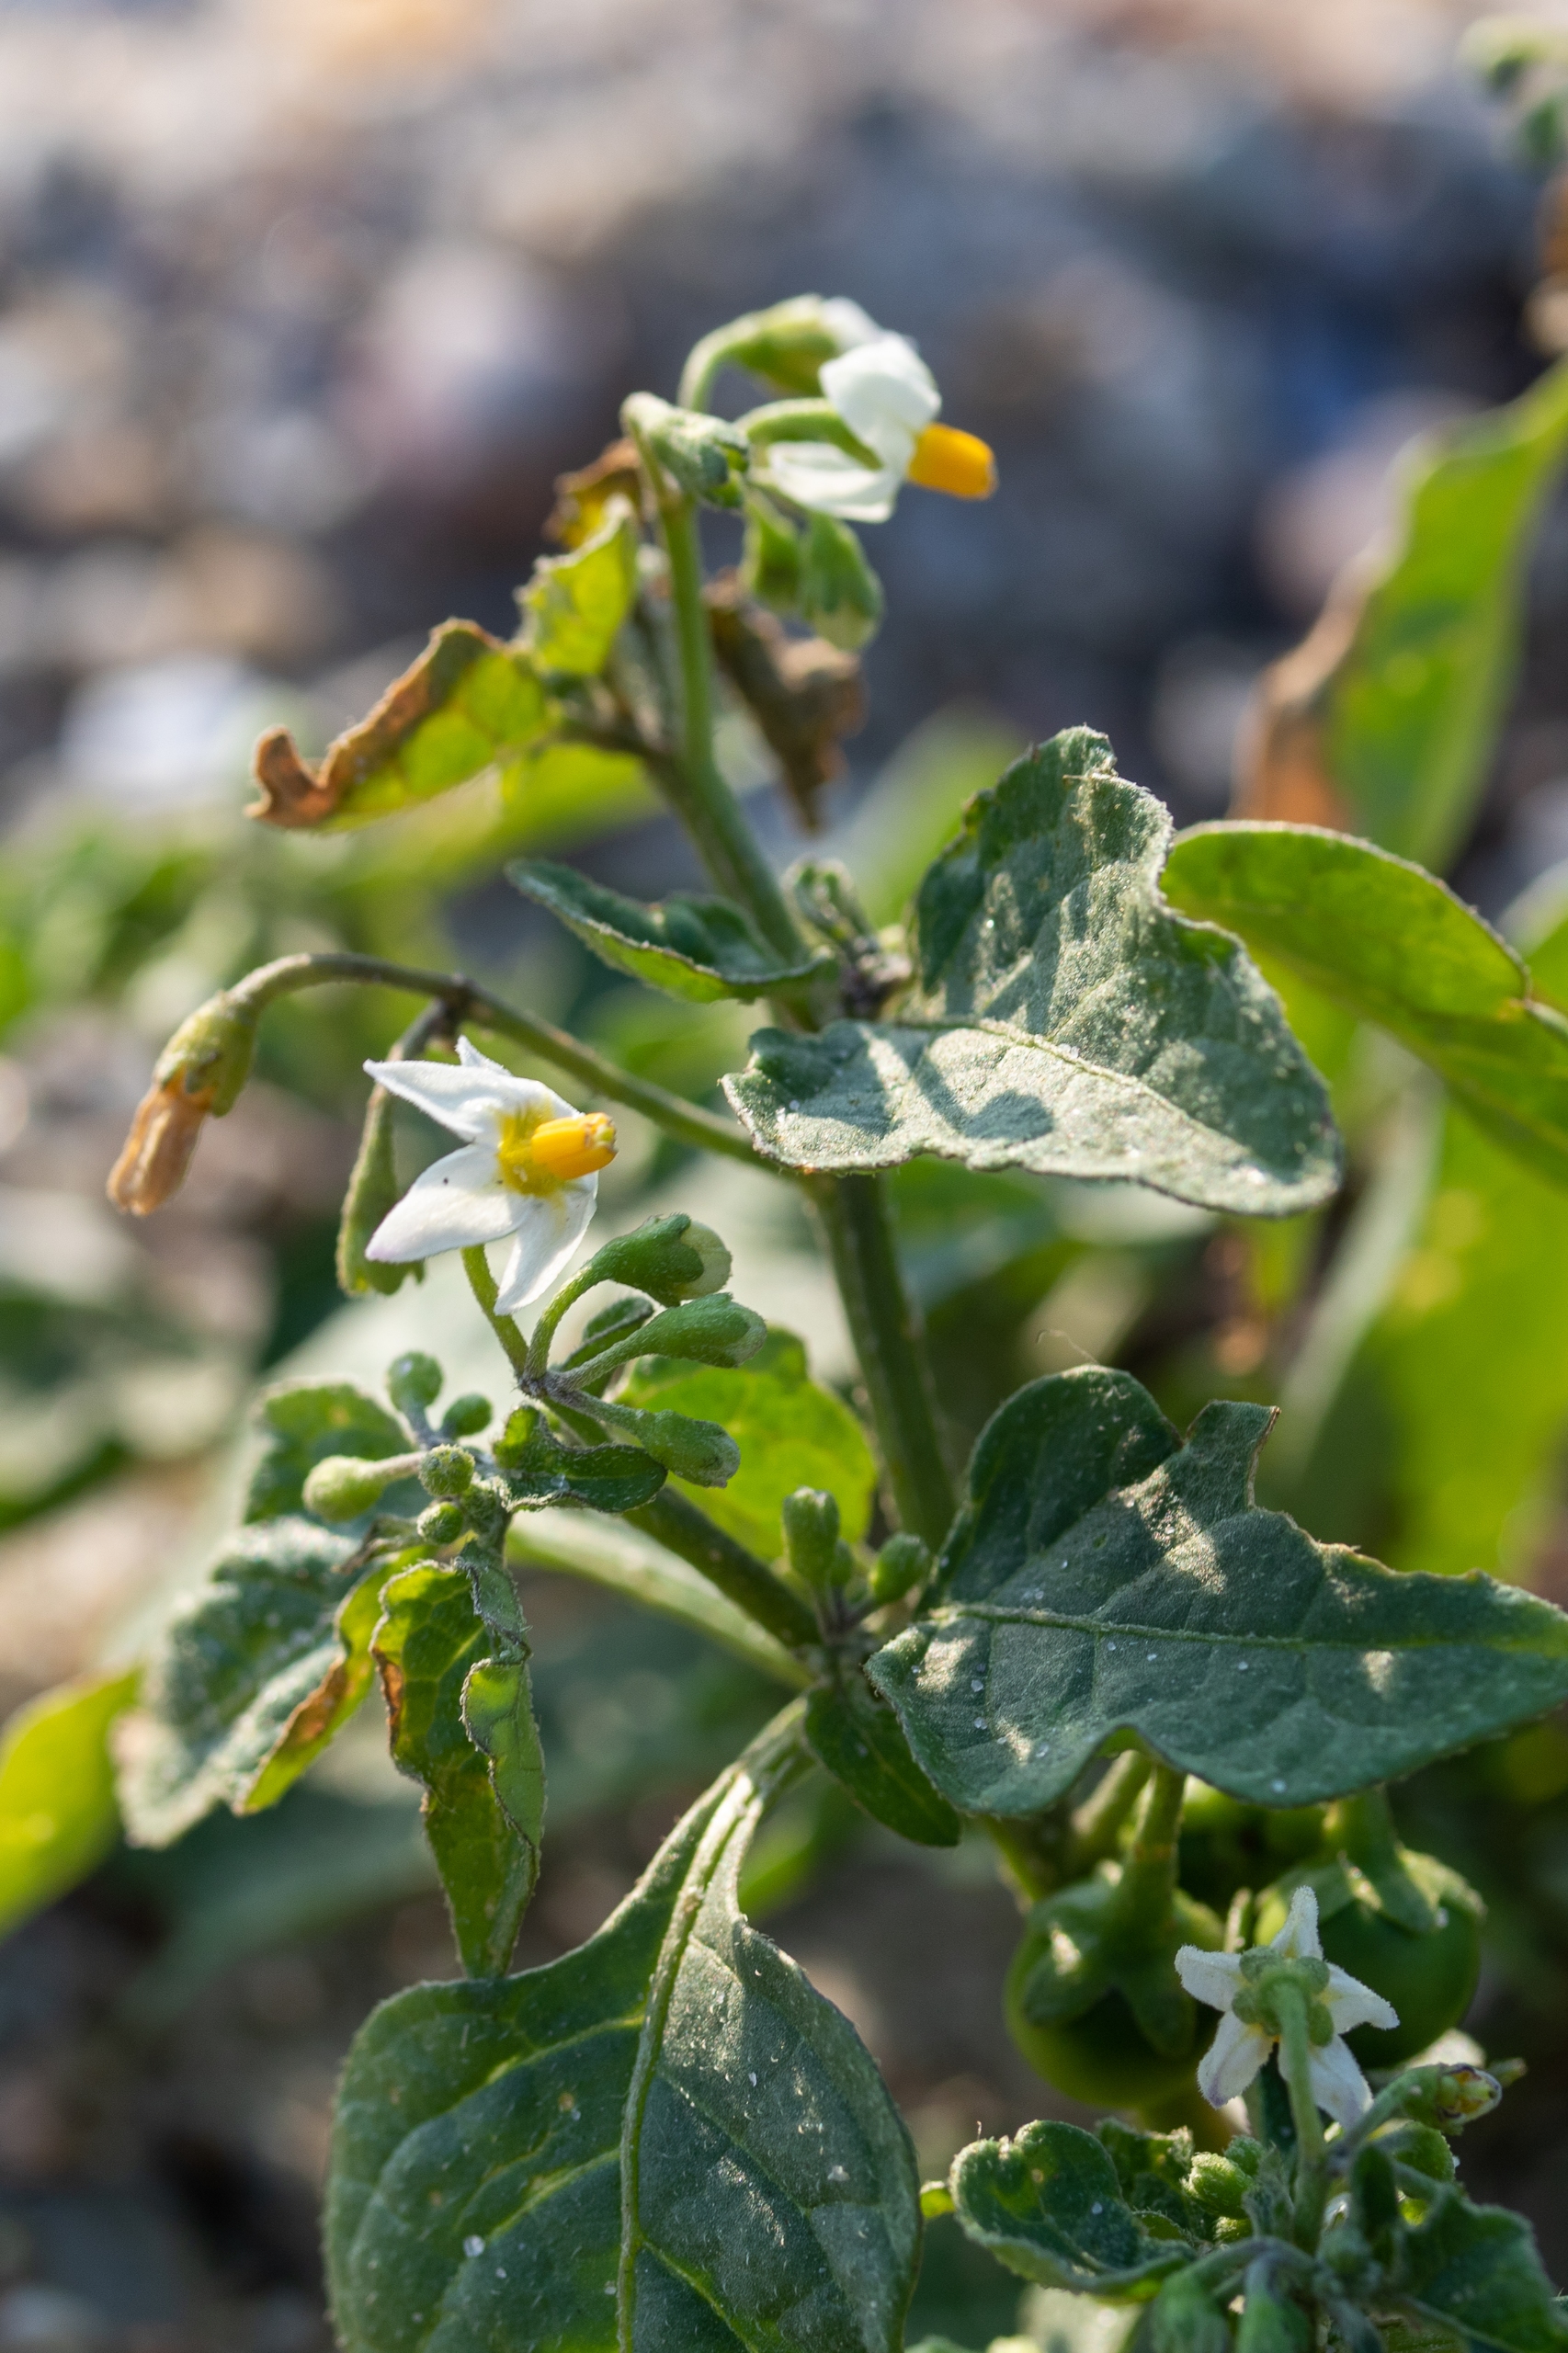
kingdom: Plantae
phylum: Tracheophyta
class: Magnoliopsida
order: Solanales
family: Solanaceae
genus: Solanum
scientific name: Solanum nigrum
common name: Sort natskygge
